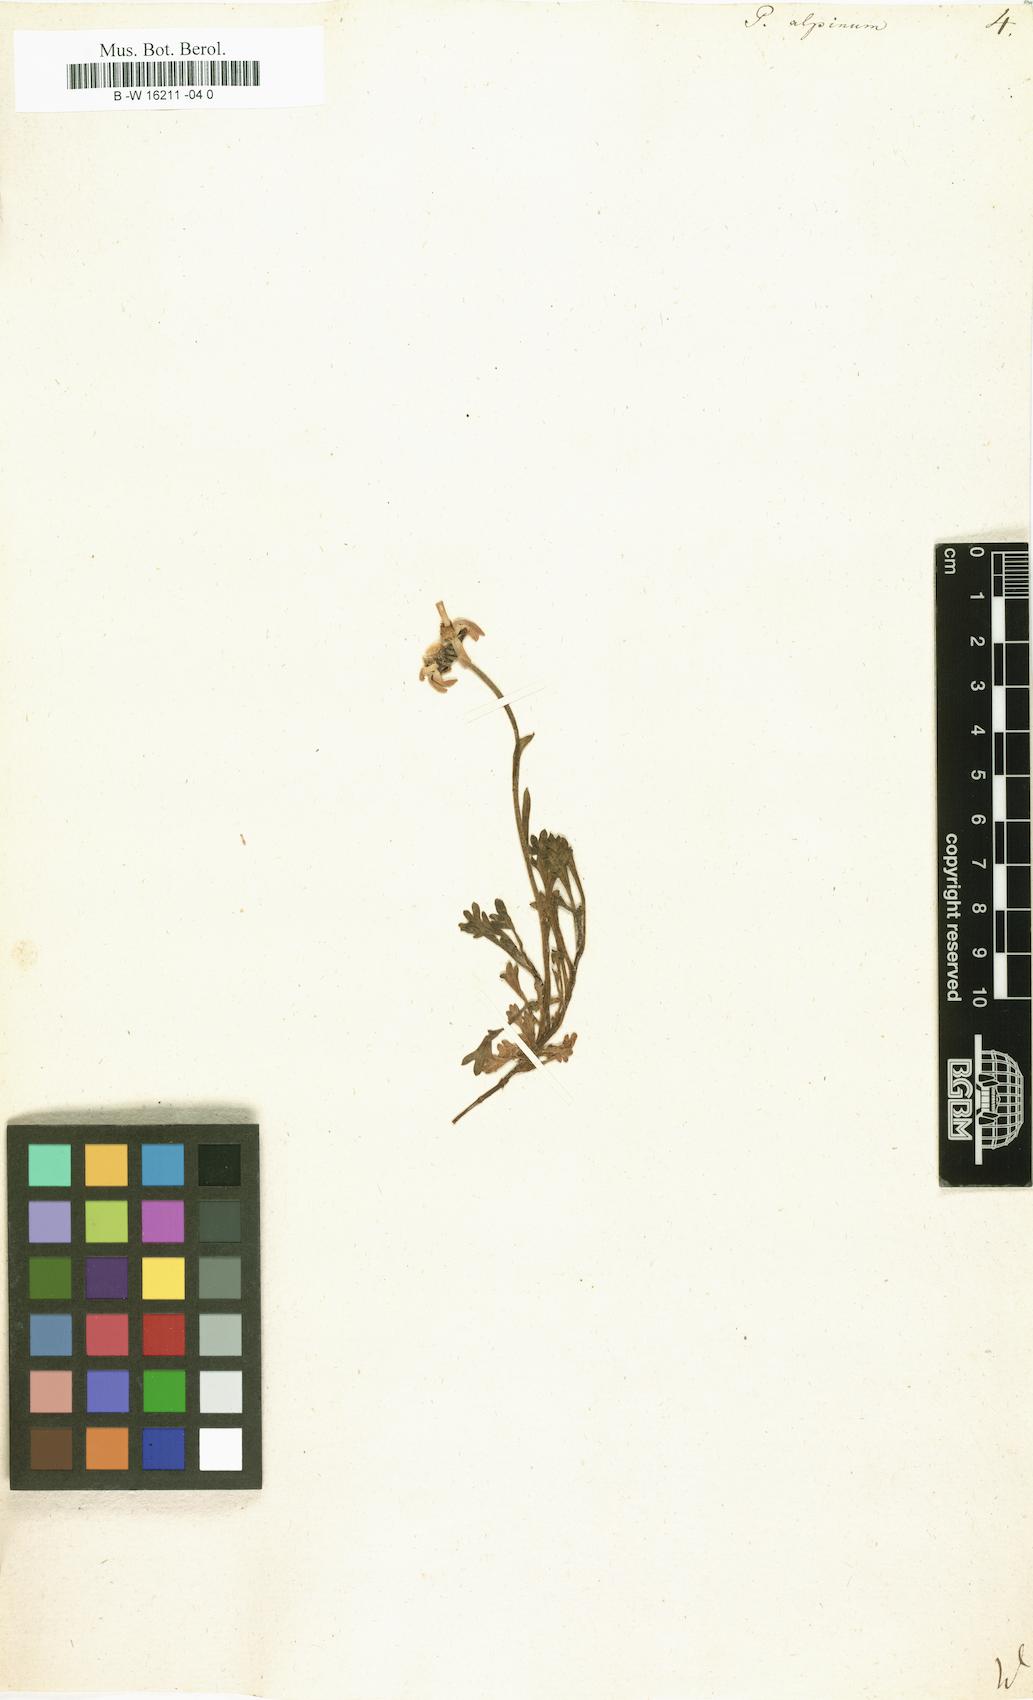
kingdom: Plantae
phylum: Tracheophyta
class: Magnoliopsida
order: Asterales
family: Asteraceae
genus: Tanacetum
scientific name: Tanacetum Pyrethrum alpinum
